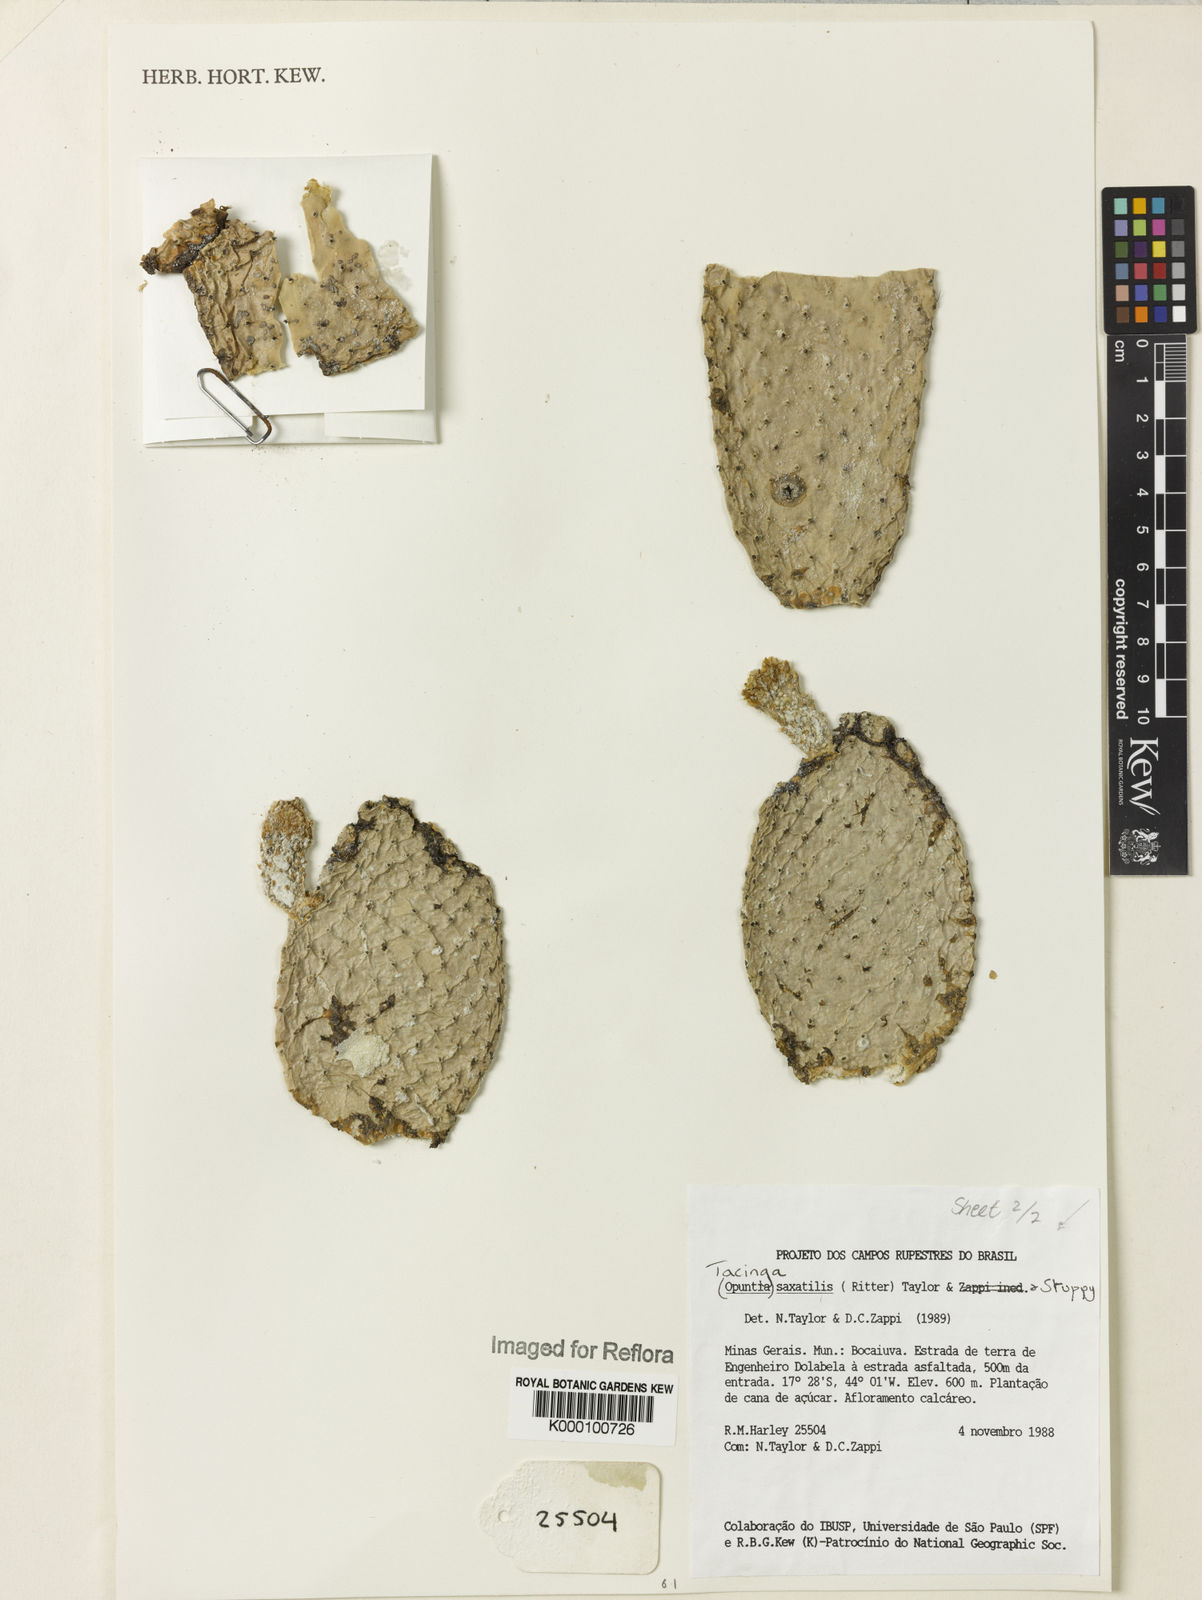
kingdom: Plantae
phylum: Tracheophyta
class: Magnoliopsida
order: Caryophyllales
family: Cactaceae
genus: Tacinga
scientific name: Tacinga saxatilis
